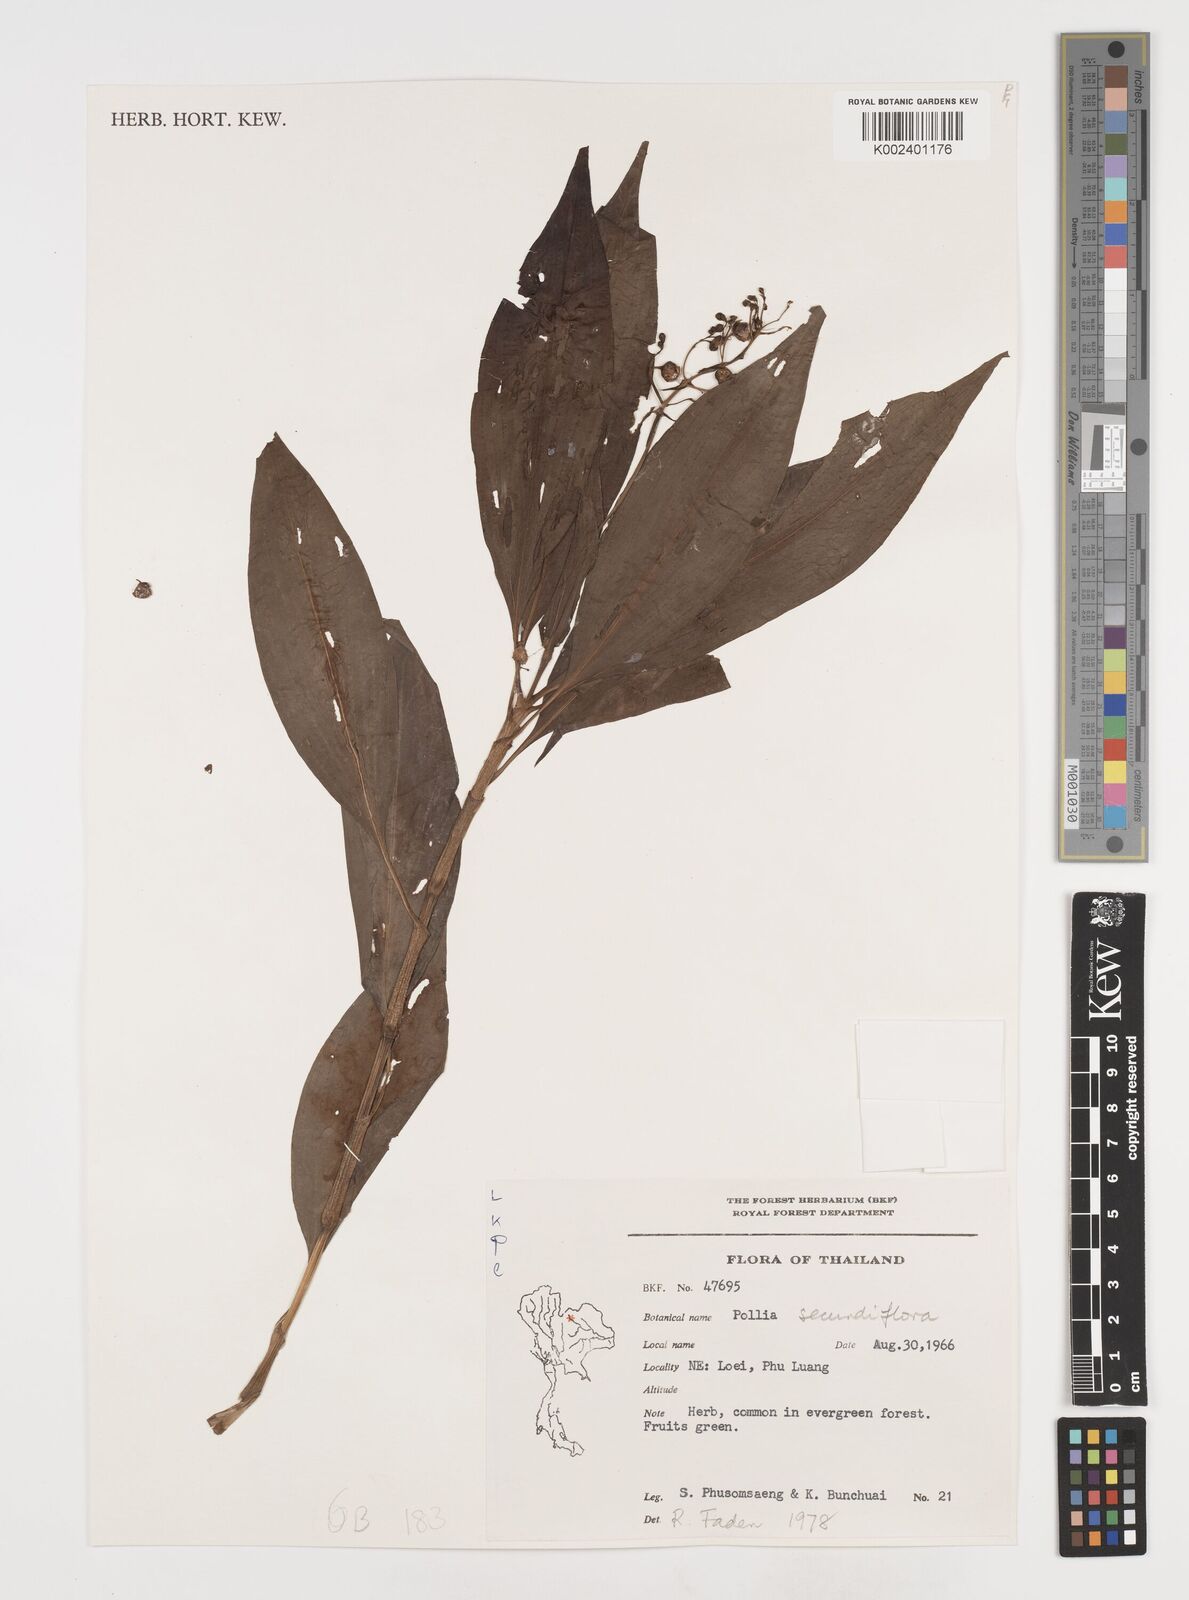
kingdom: Plantae
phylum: Tracheophyta
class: Liliopsida
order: Commelinales
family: Commelinaceae
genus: Pollia
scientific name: Pollia secundiflora
